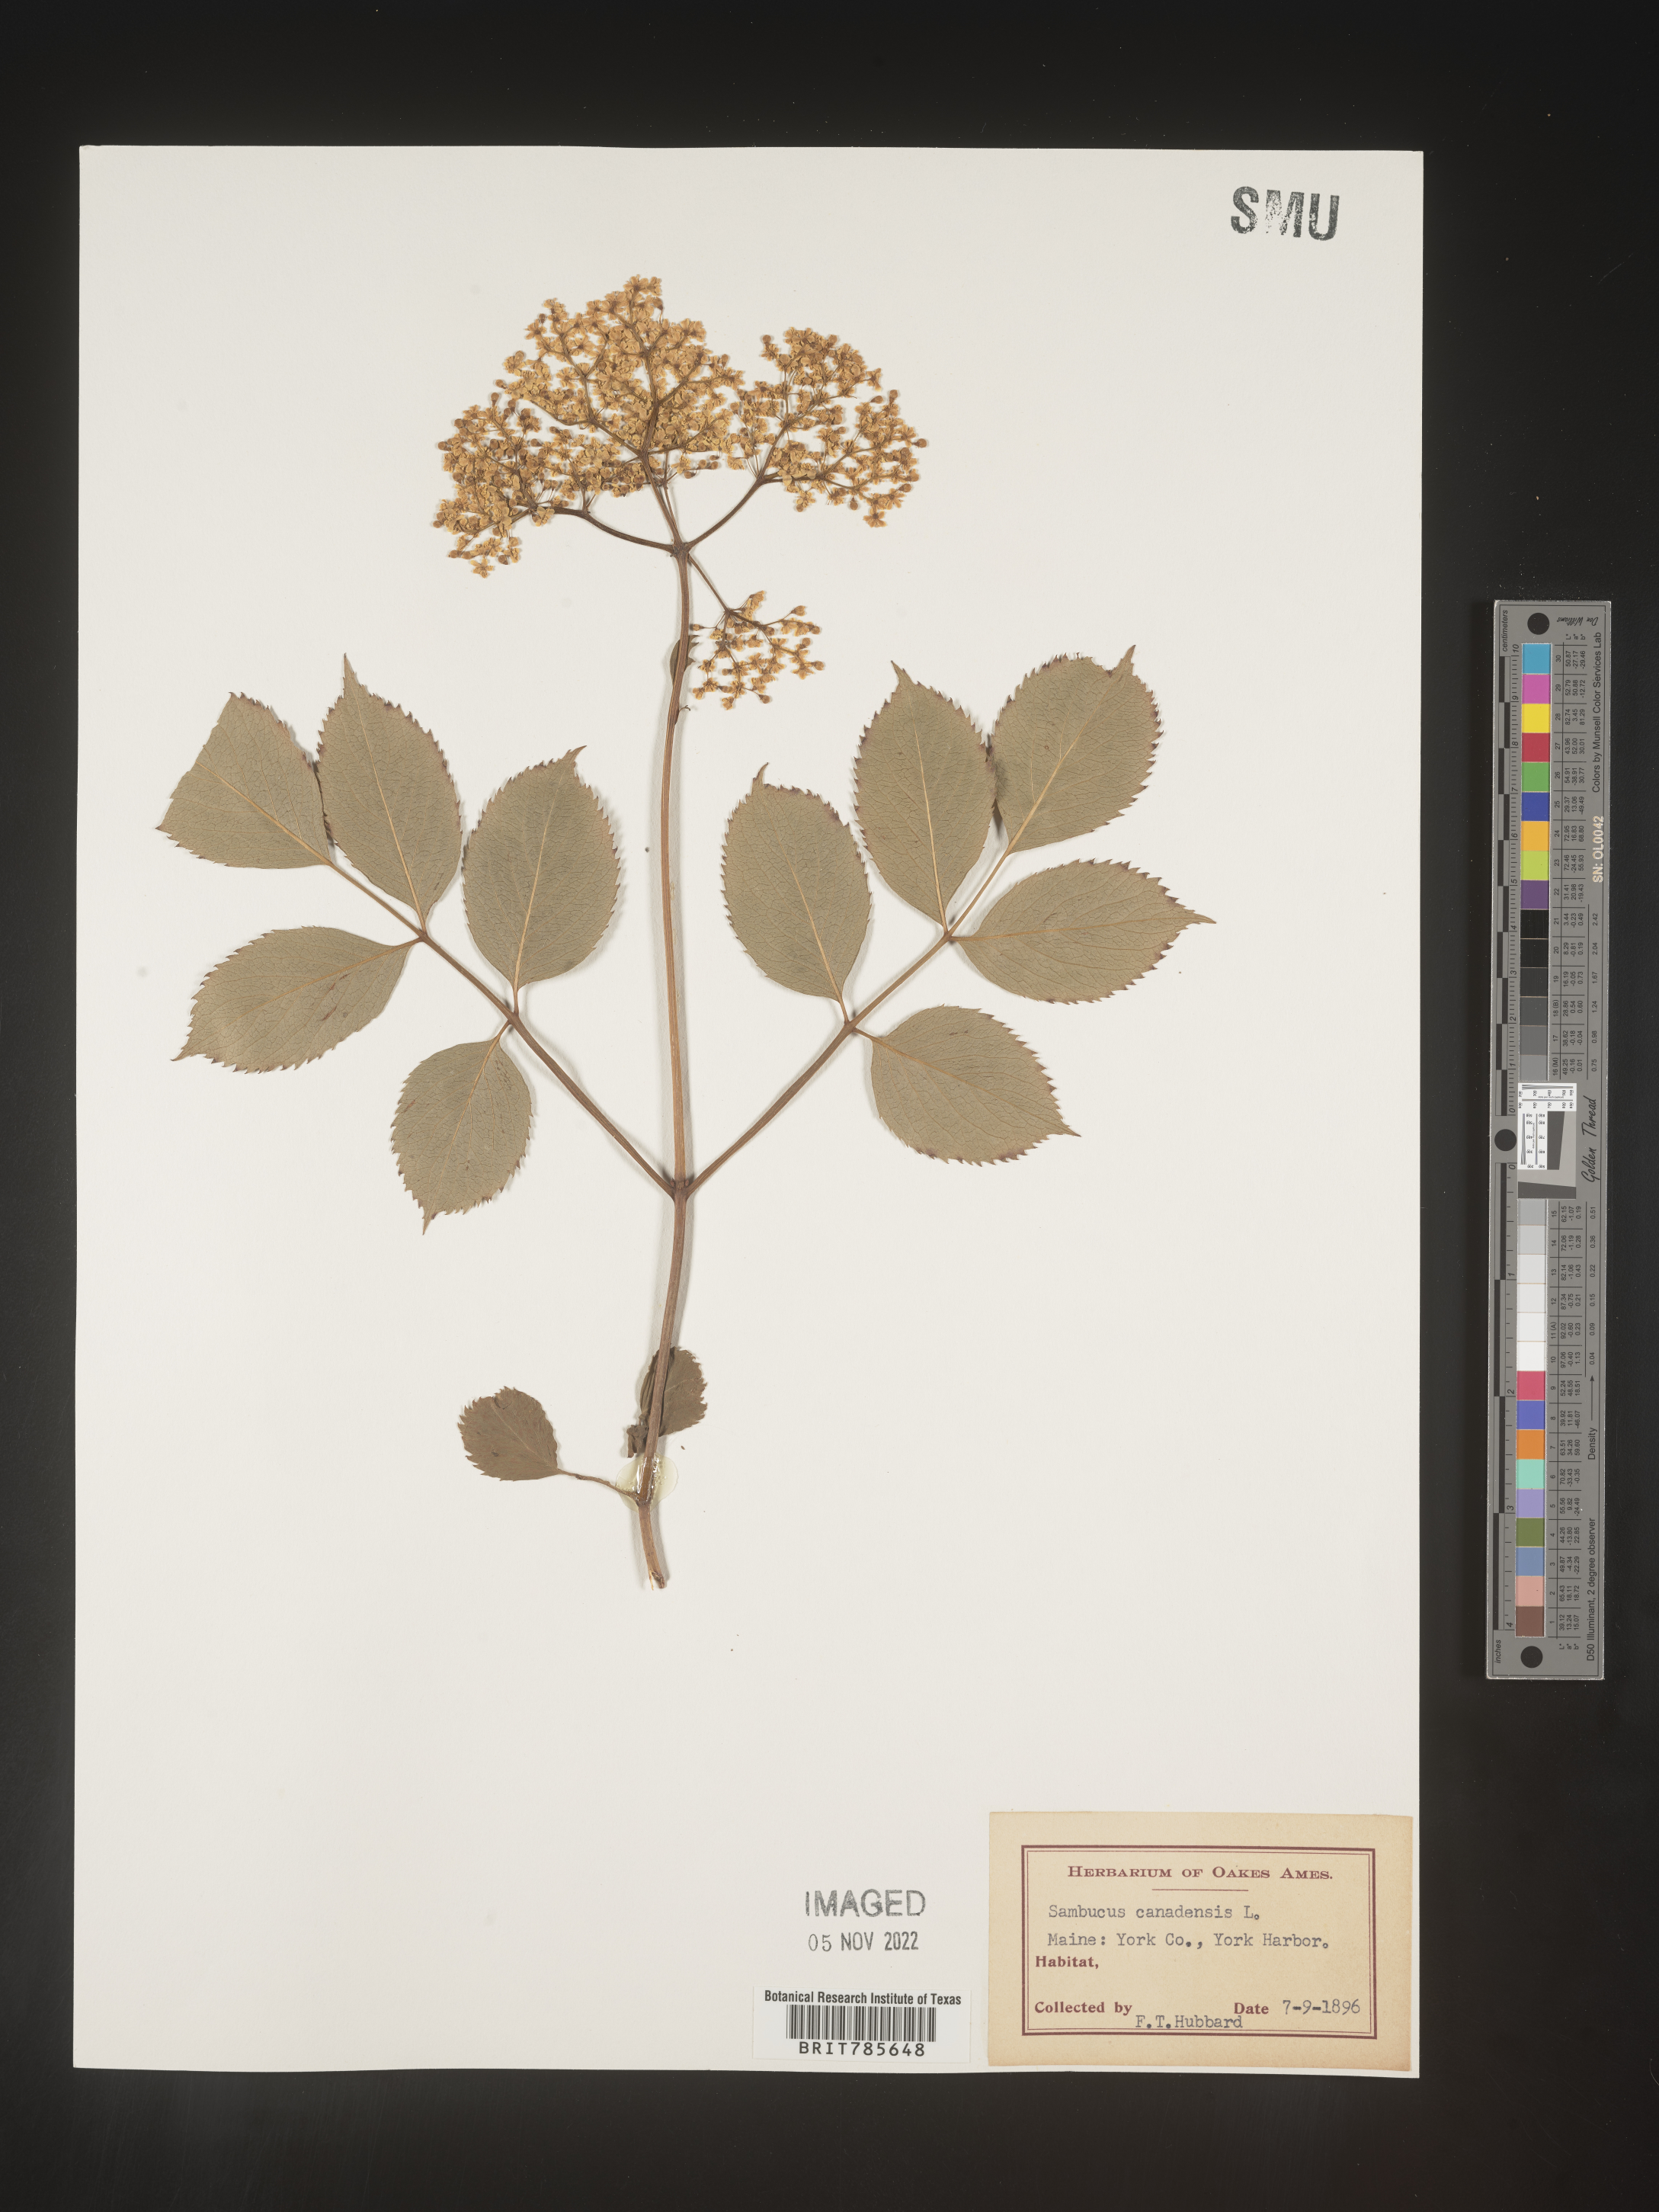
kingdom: Plantae
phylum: Tracheophyta
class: Magnoliopsida
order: Dipsacales
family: Viburnaceae
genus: Sambucus
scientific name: Sambucus canadensis
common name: American elder
